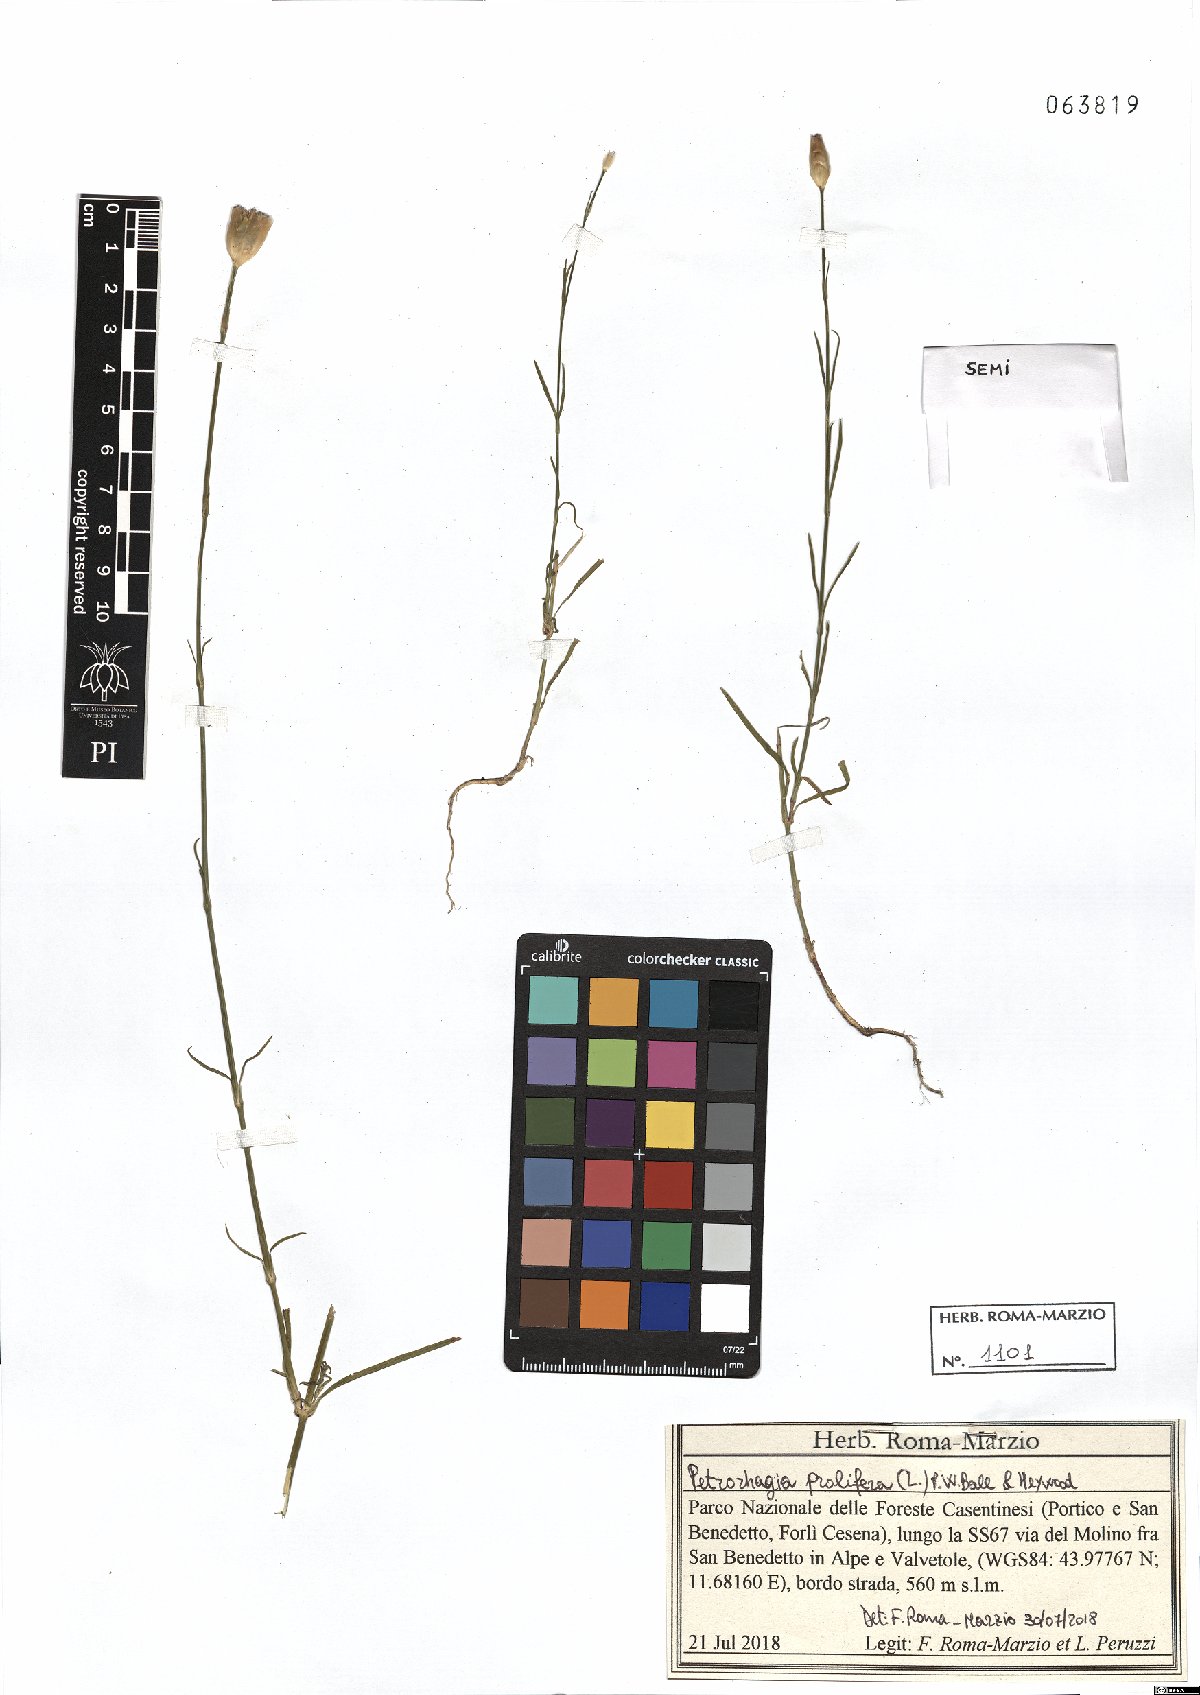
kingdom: Plantae
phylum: Tracheophyta
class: Magnoliopsida
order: Caryophyllales
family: Caryophyllaceae
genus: Petrorhagia
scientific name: Petrorhagia prolifera
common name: Proliferous pink
